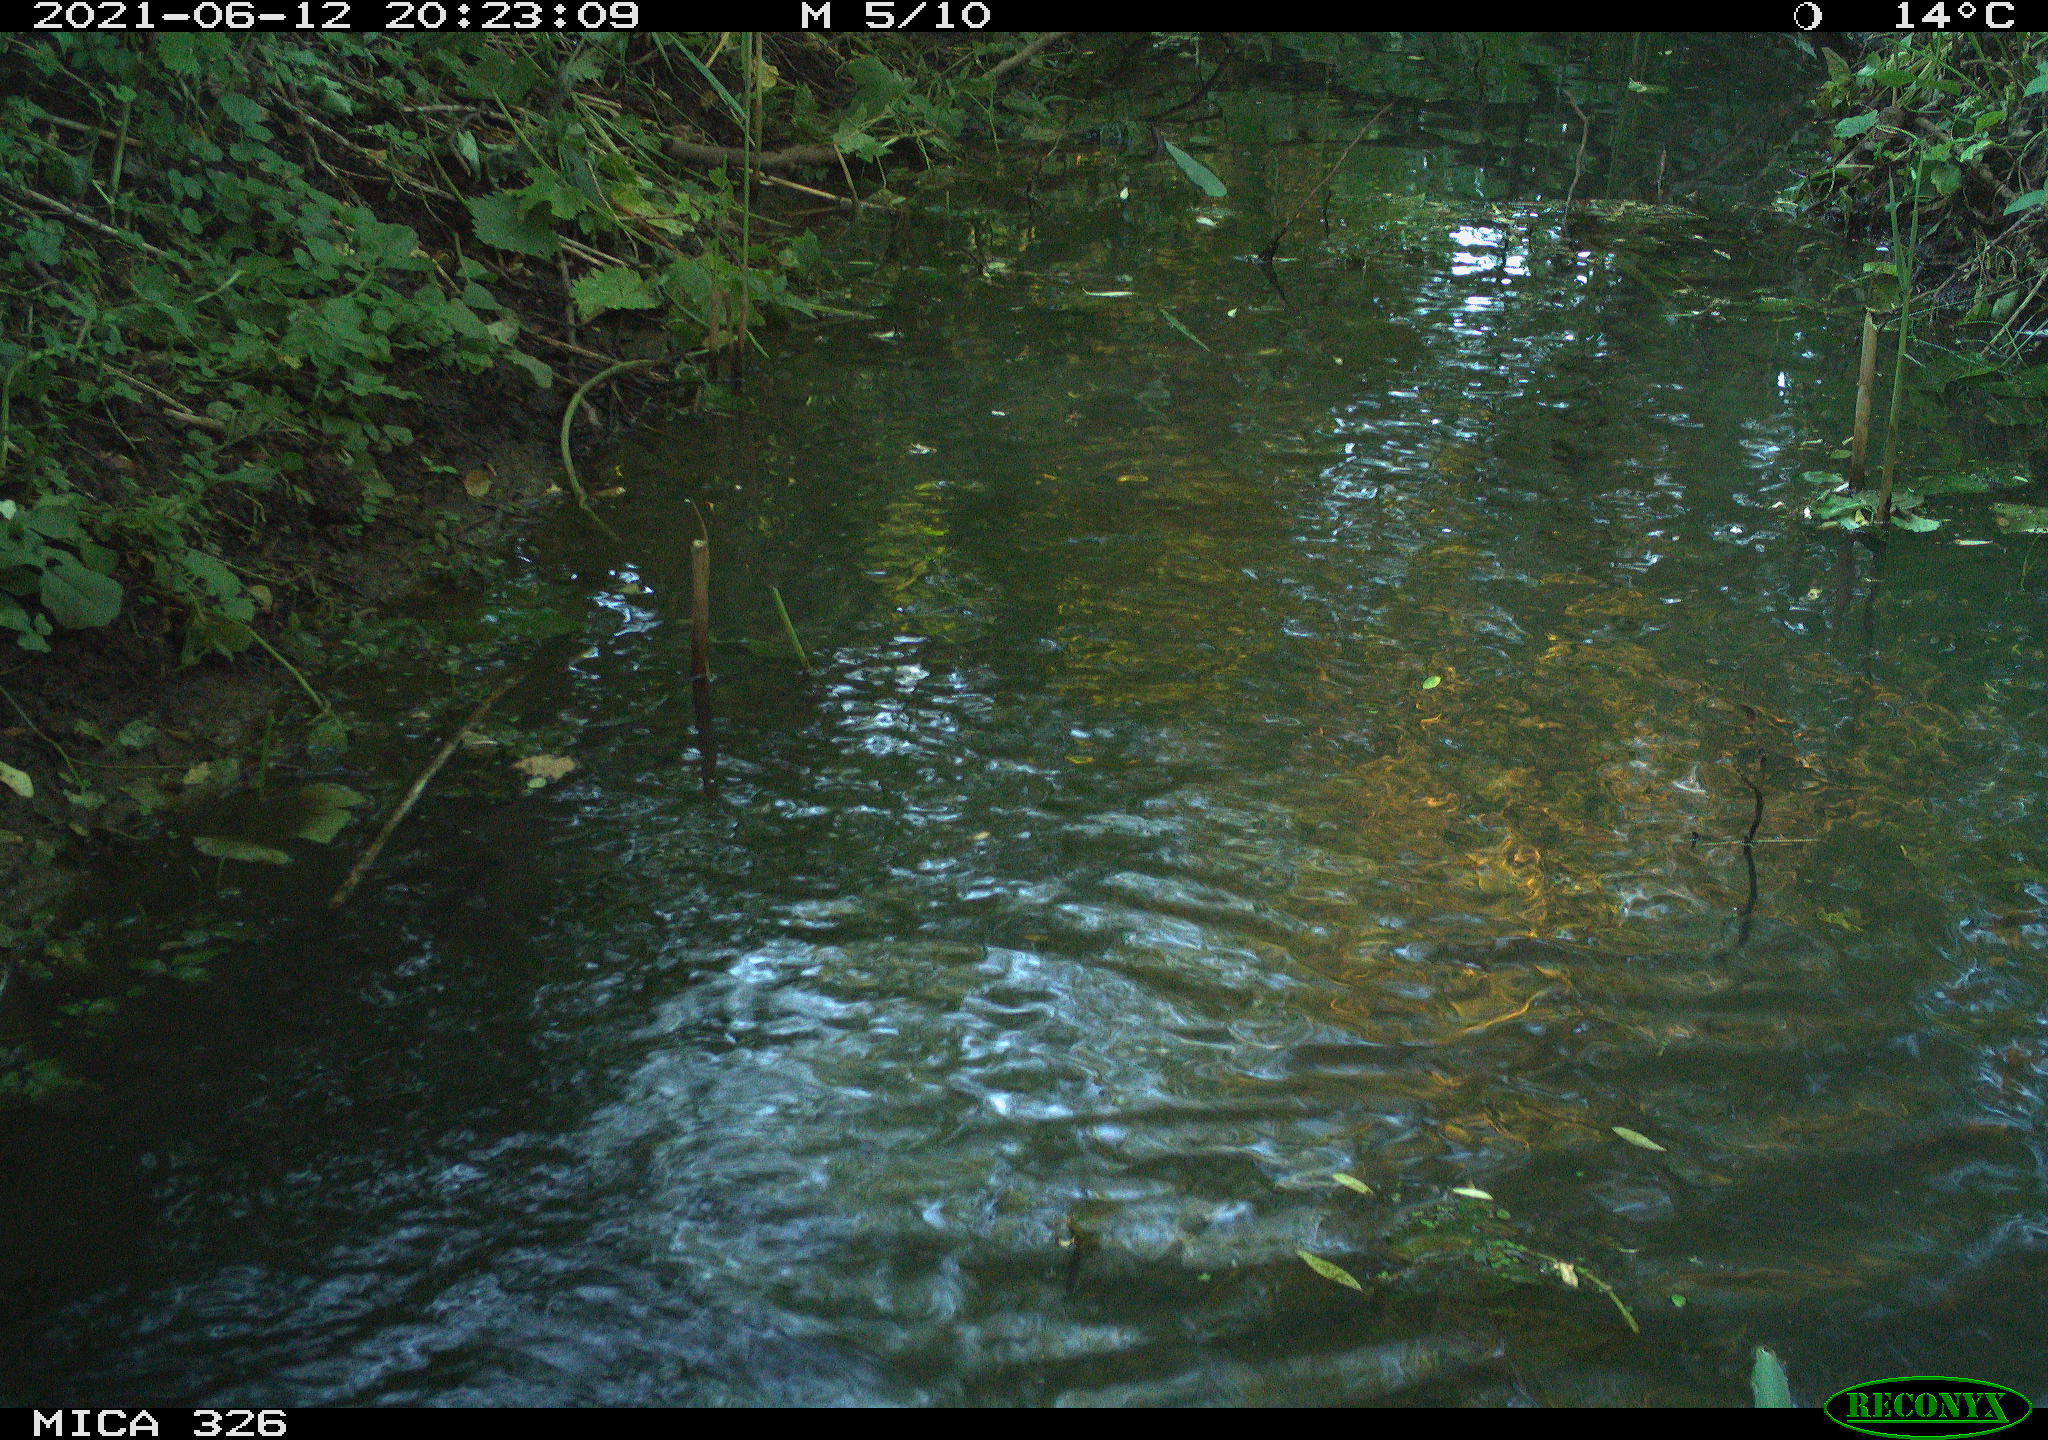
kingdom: Animalia
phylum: Chordata
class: Aves
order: Anseriformes
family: Anatidae
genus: Anas
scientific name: Anas platyrhynchos
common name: Mallard
